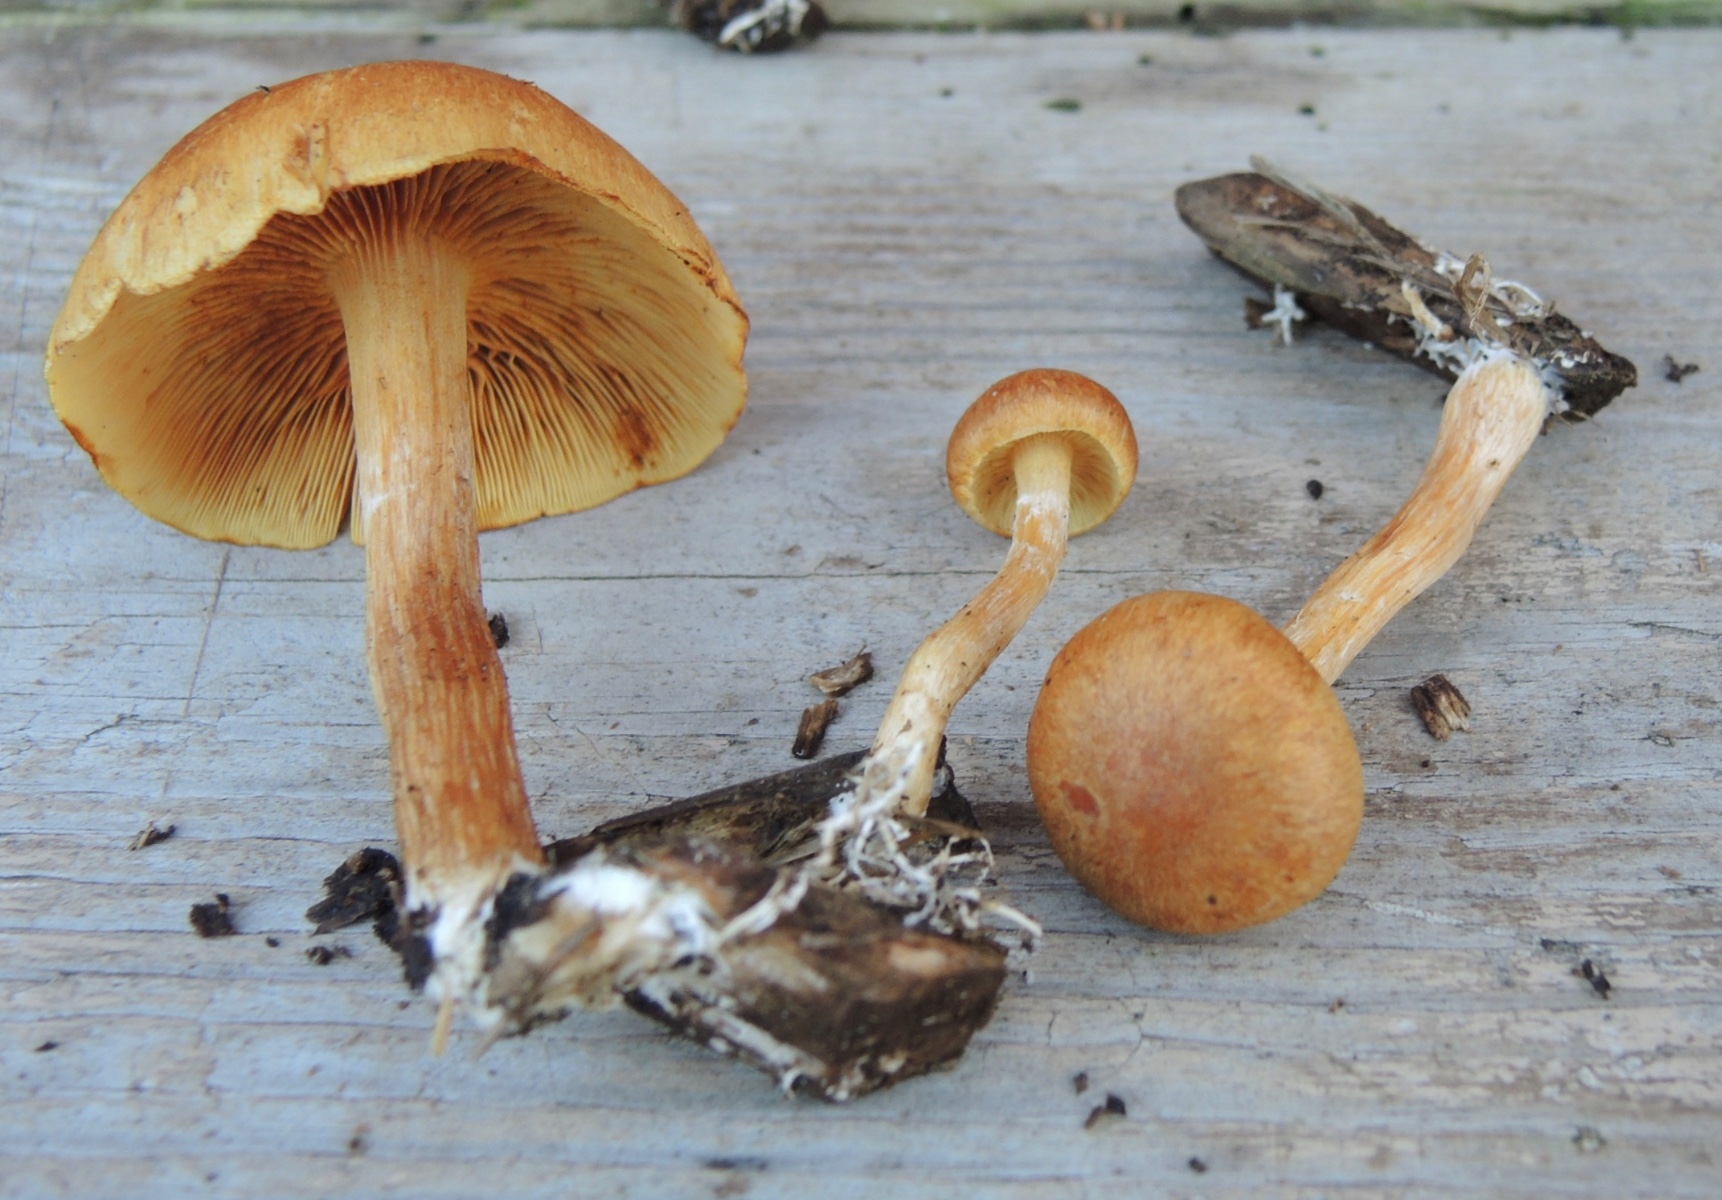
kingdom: Fungi
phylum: Basidiomycota
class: Agaricomycetes
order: Agaricales
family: Hymenogastraceae
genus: Gymnopilus
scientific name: Gymnopilus penetrans
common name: plettet flammehat
